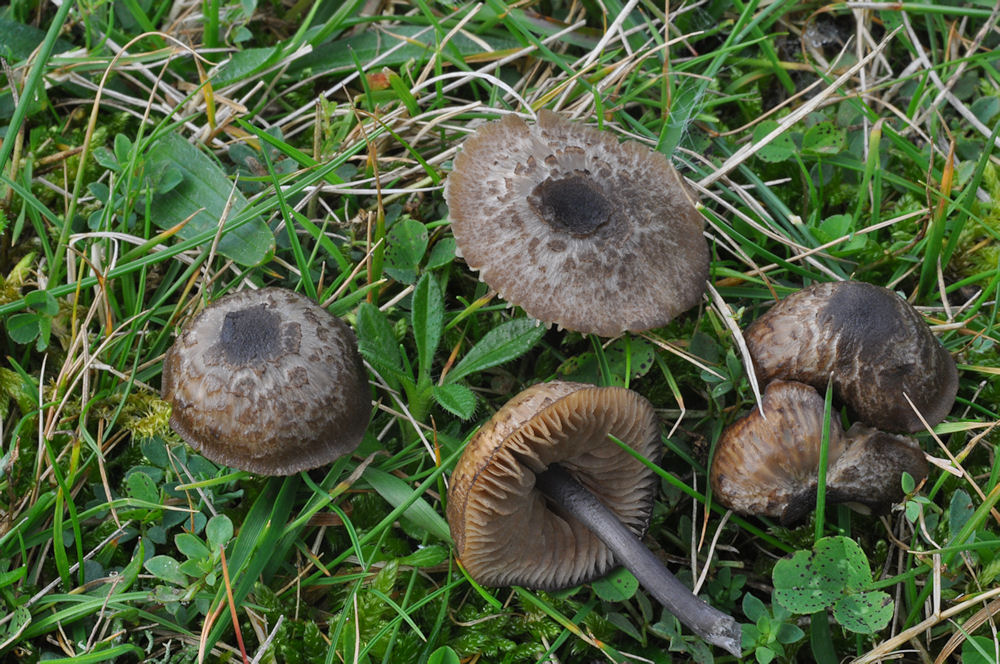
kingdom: Fungi
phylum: Basidiomycota
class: Agaricomycetes
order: Agaricales
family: Entolomataceae
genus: Entoloma
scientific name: Entoloma
